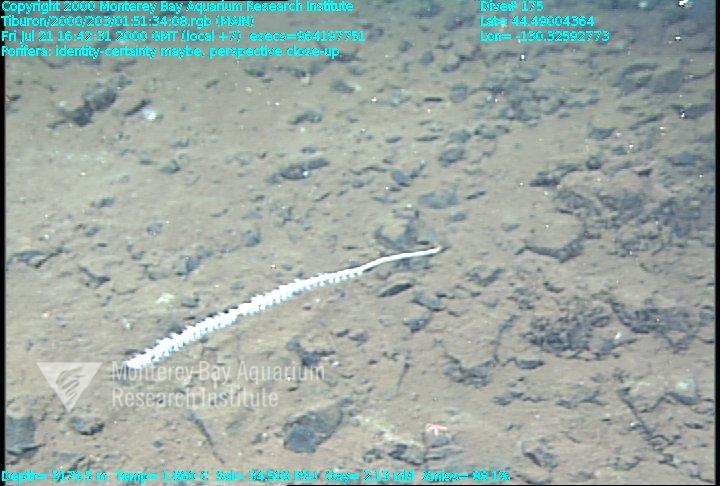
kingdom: Animalia
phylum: Porifera
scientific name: Porifera
